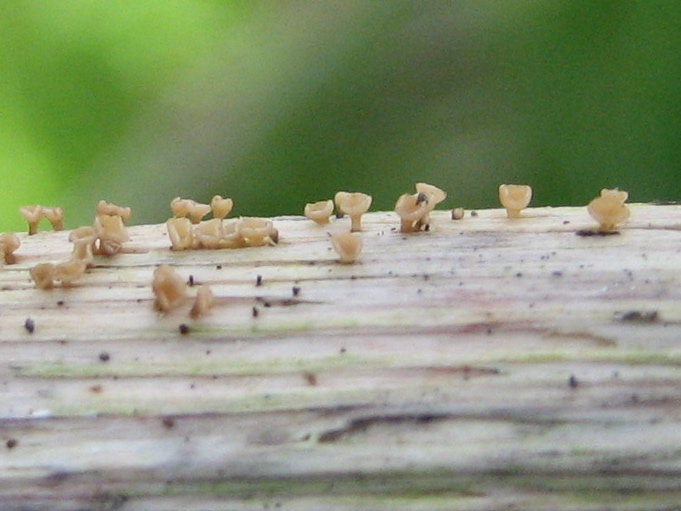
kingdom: Fungi
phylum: Ascomycota
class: Leotiomycetes
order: Helotiales
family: Helotiaceae
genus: Cyathicula
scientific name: Cyathicula cyathoidea
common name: pokal-stilkskive
